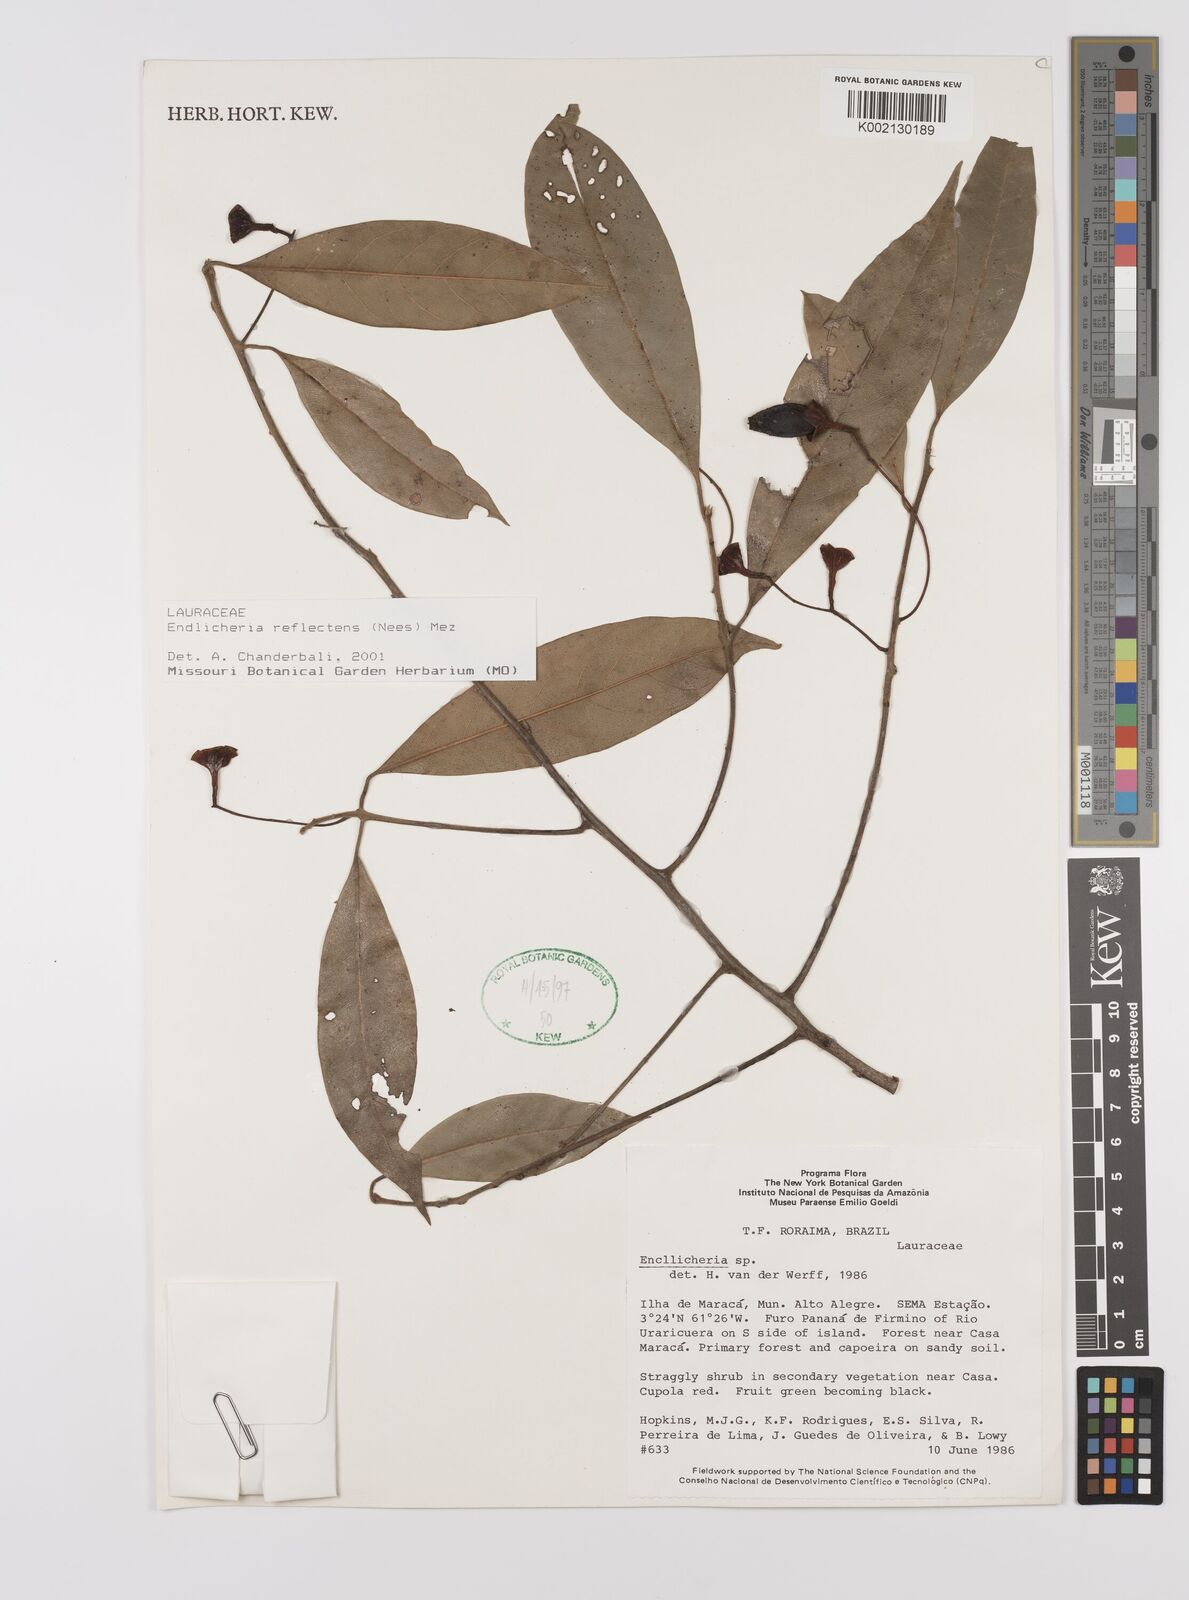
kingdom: Plantae
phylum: Tracheophyta
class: Magnoliopsida
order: Laurales
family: Lauraceae
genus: Endlicheria
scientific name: Endlicheria reflectens
